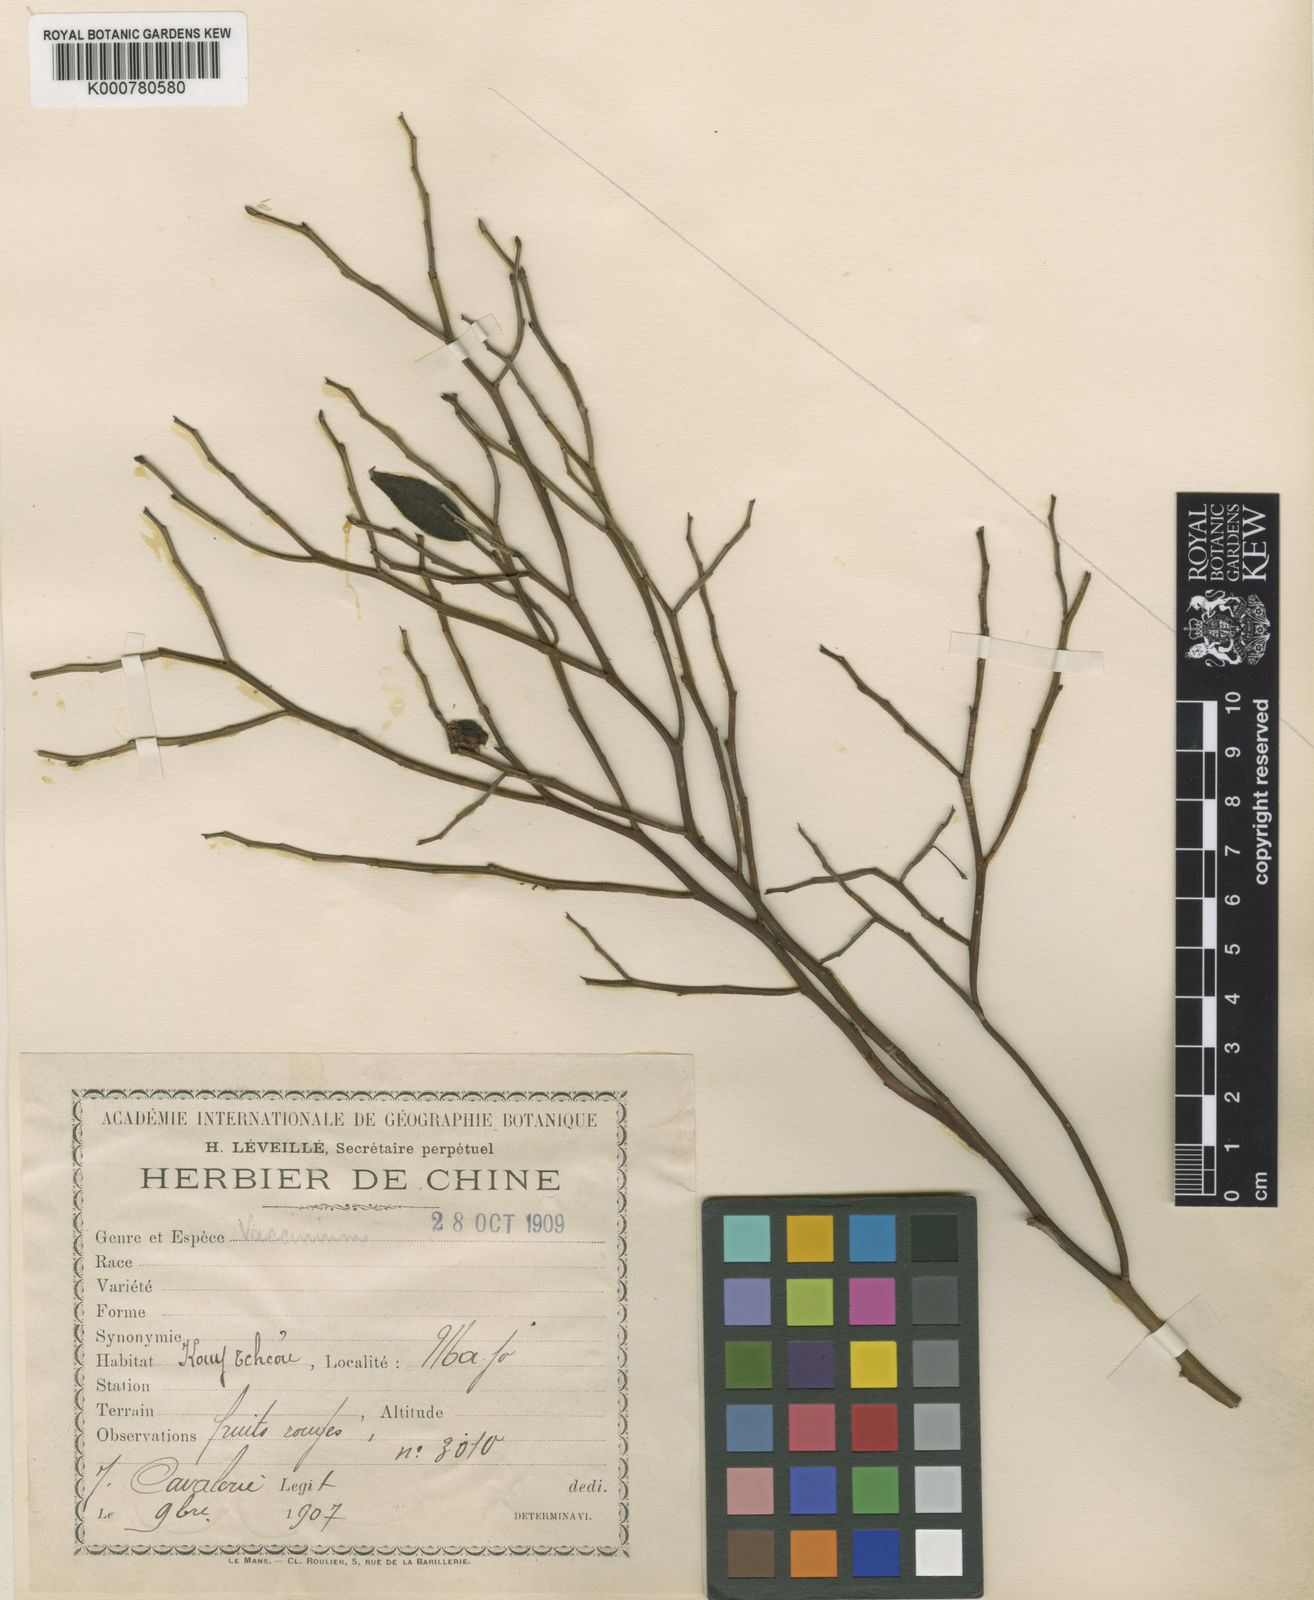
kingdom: Plantae
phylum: Tracheophyta
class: Magnoliopsida
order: Ericales
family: Ericaceae
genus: Vaccinium
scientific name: Vaccinium japonicum
